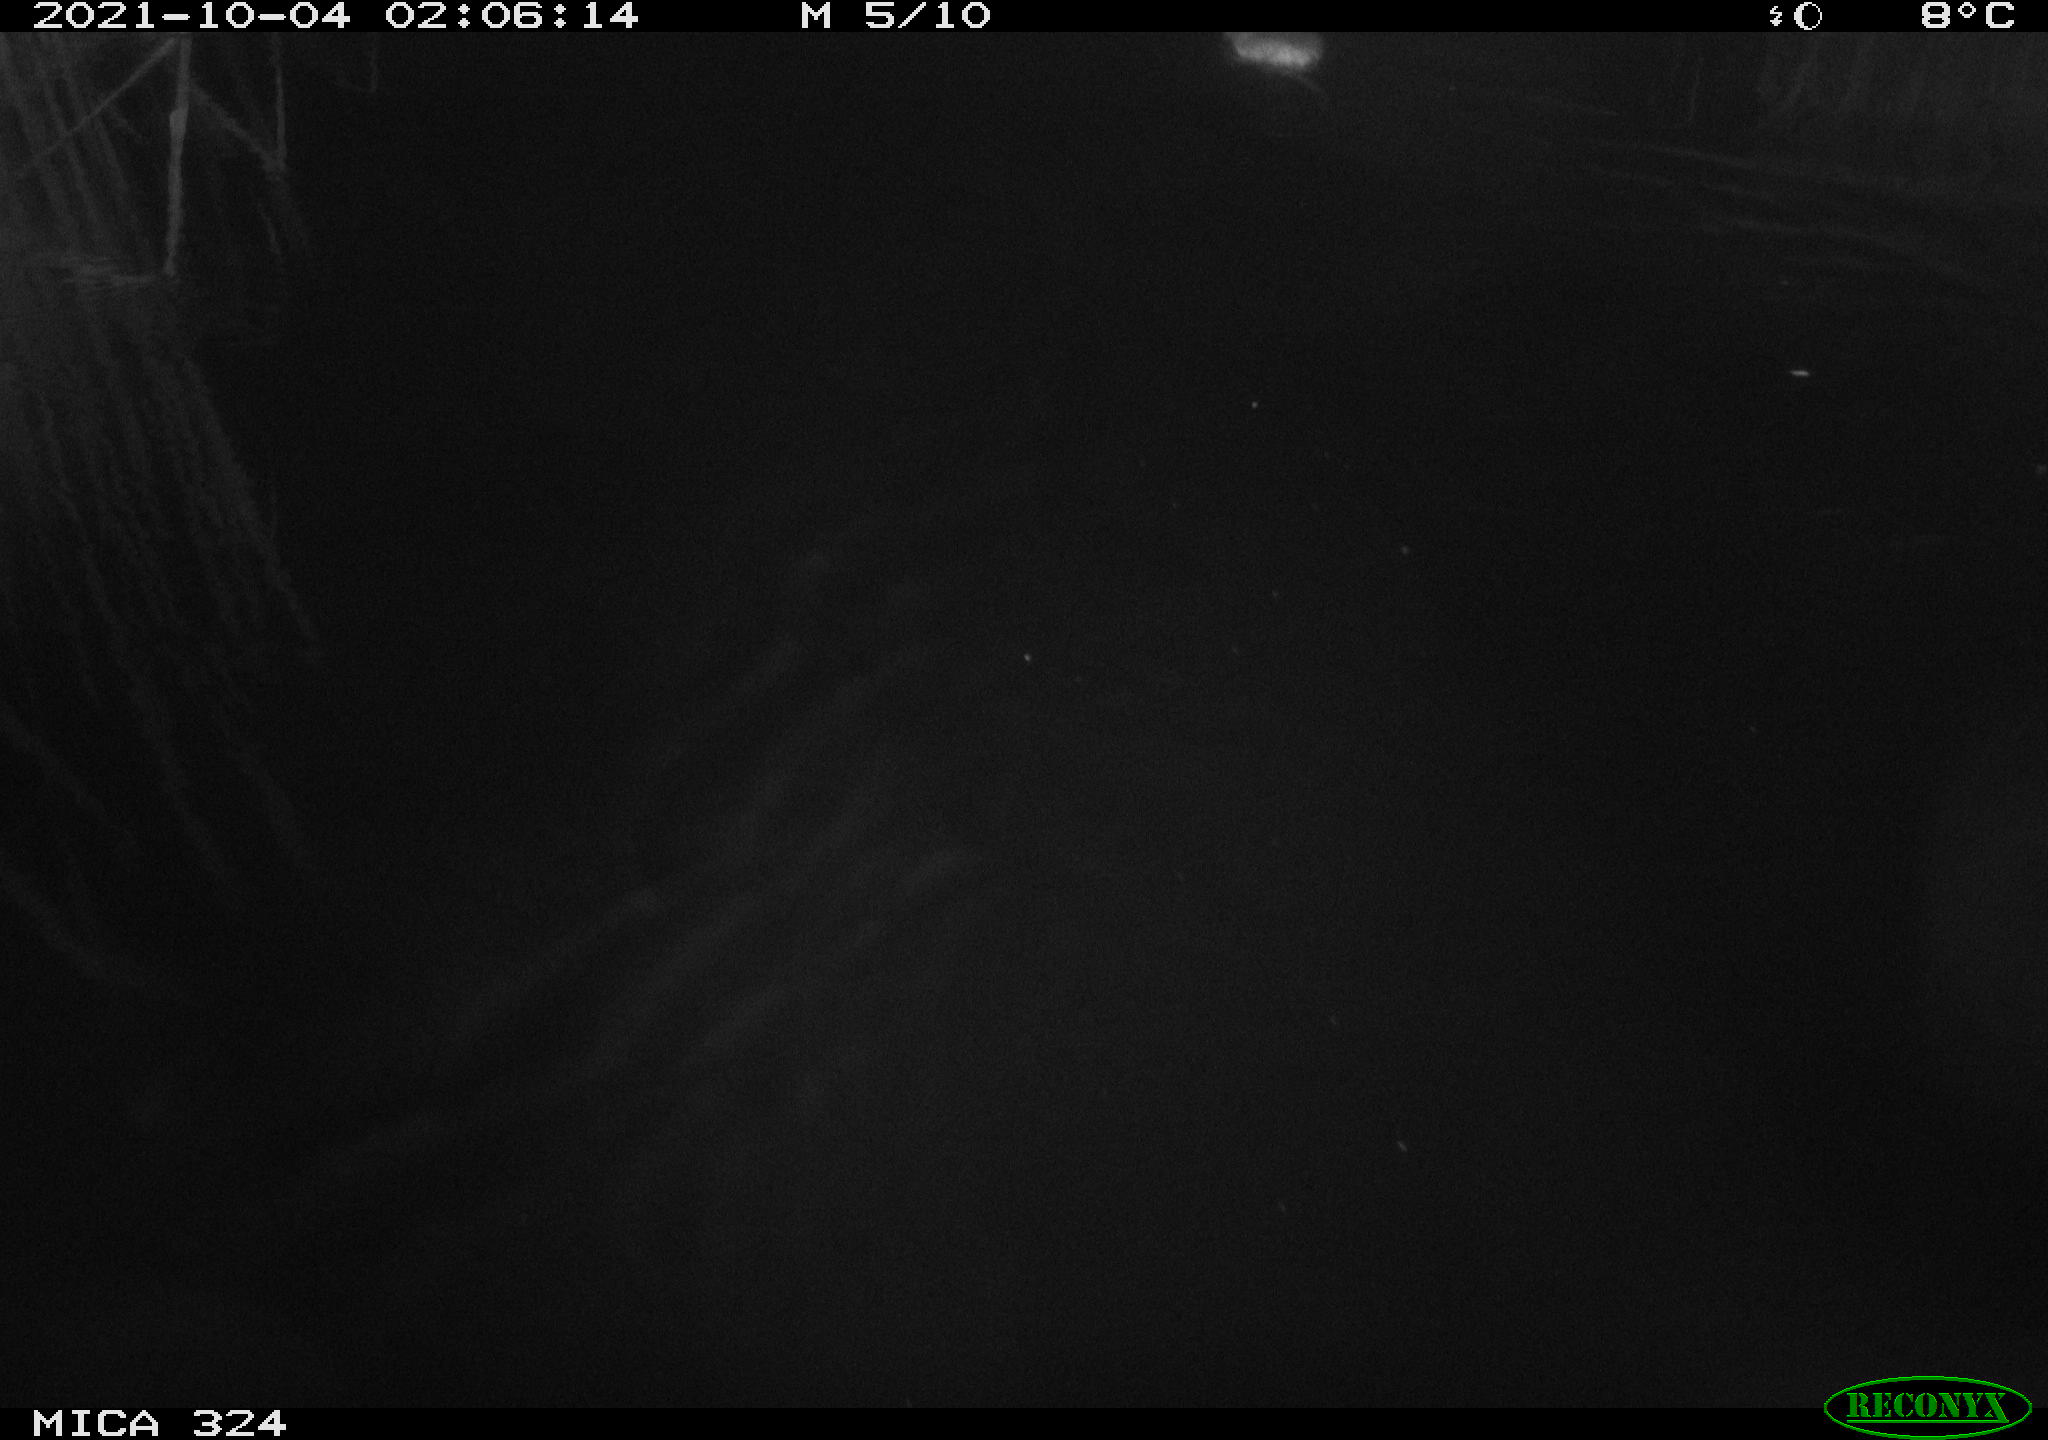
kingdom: Animalia
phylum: Chordata
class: Mammalia
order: Rodentia
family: Cricetidae
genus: Ondatra
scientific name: Ondatra zibethicus
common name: Muskrat
